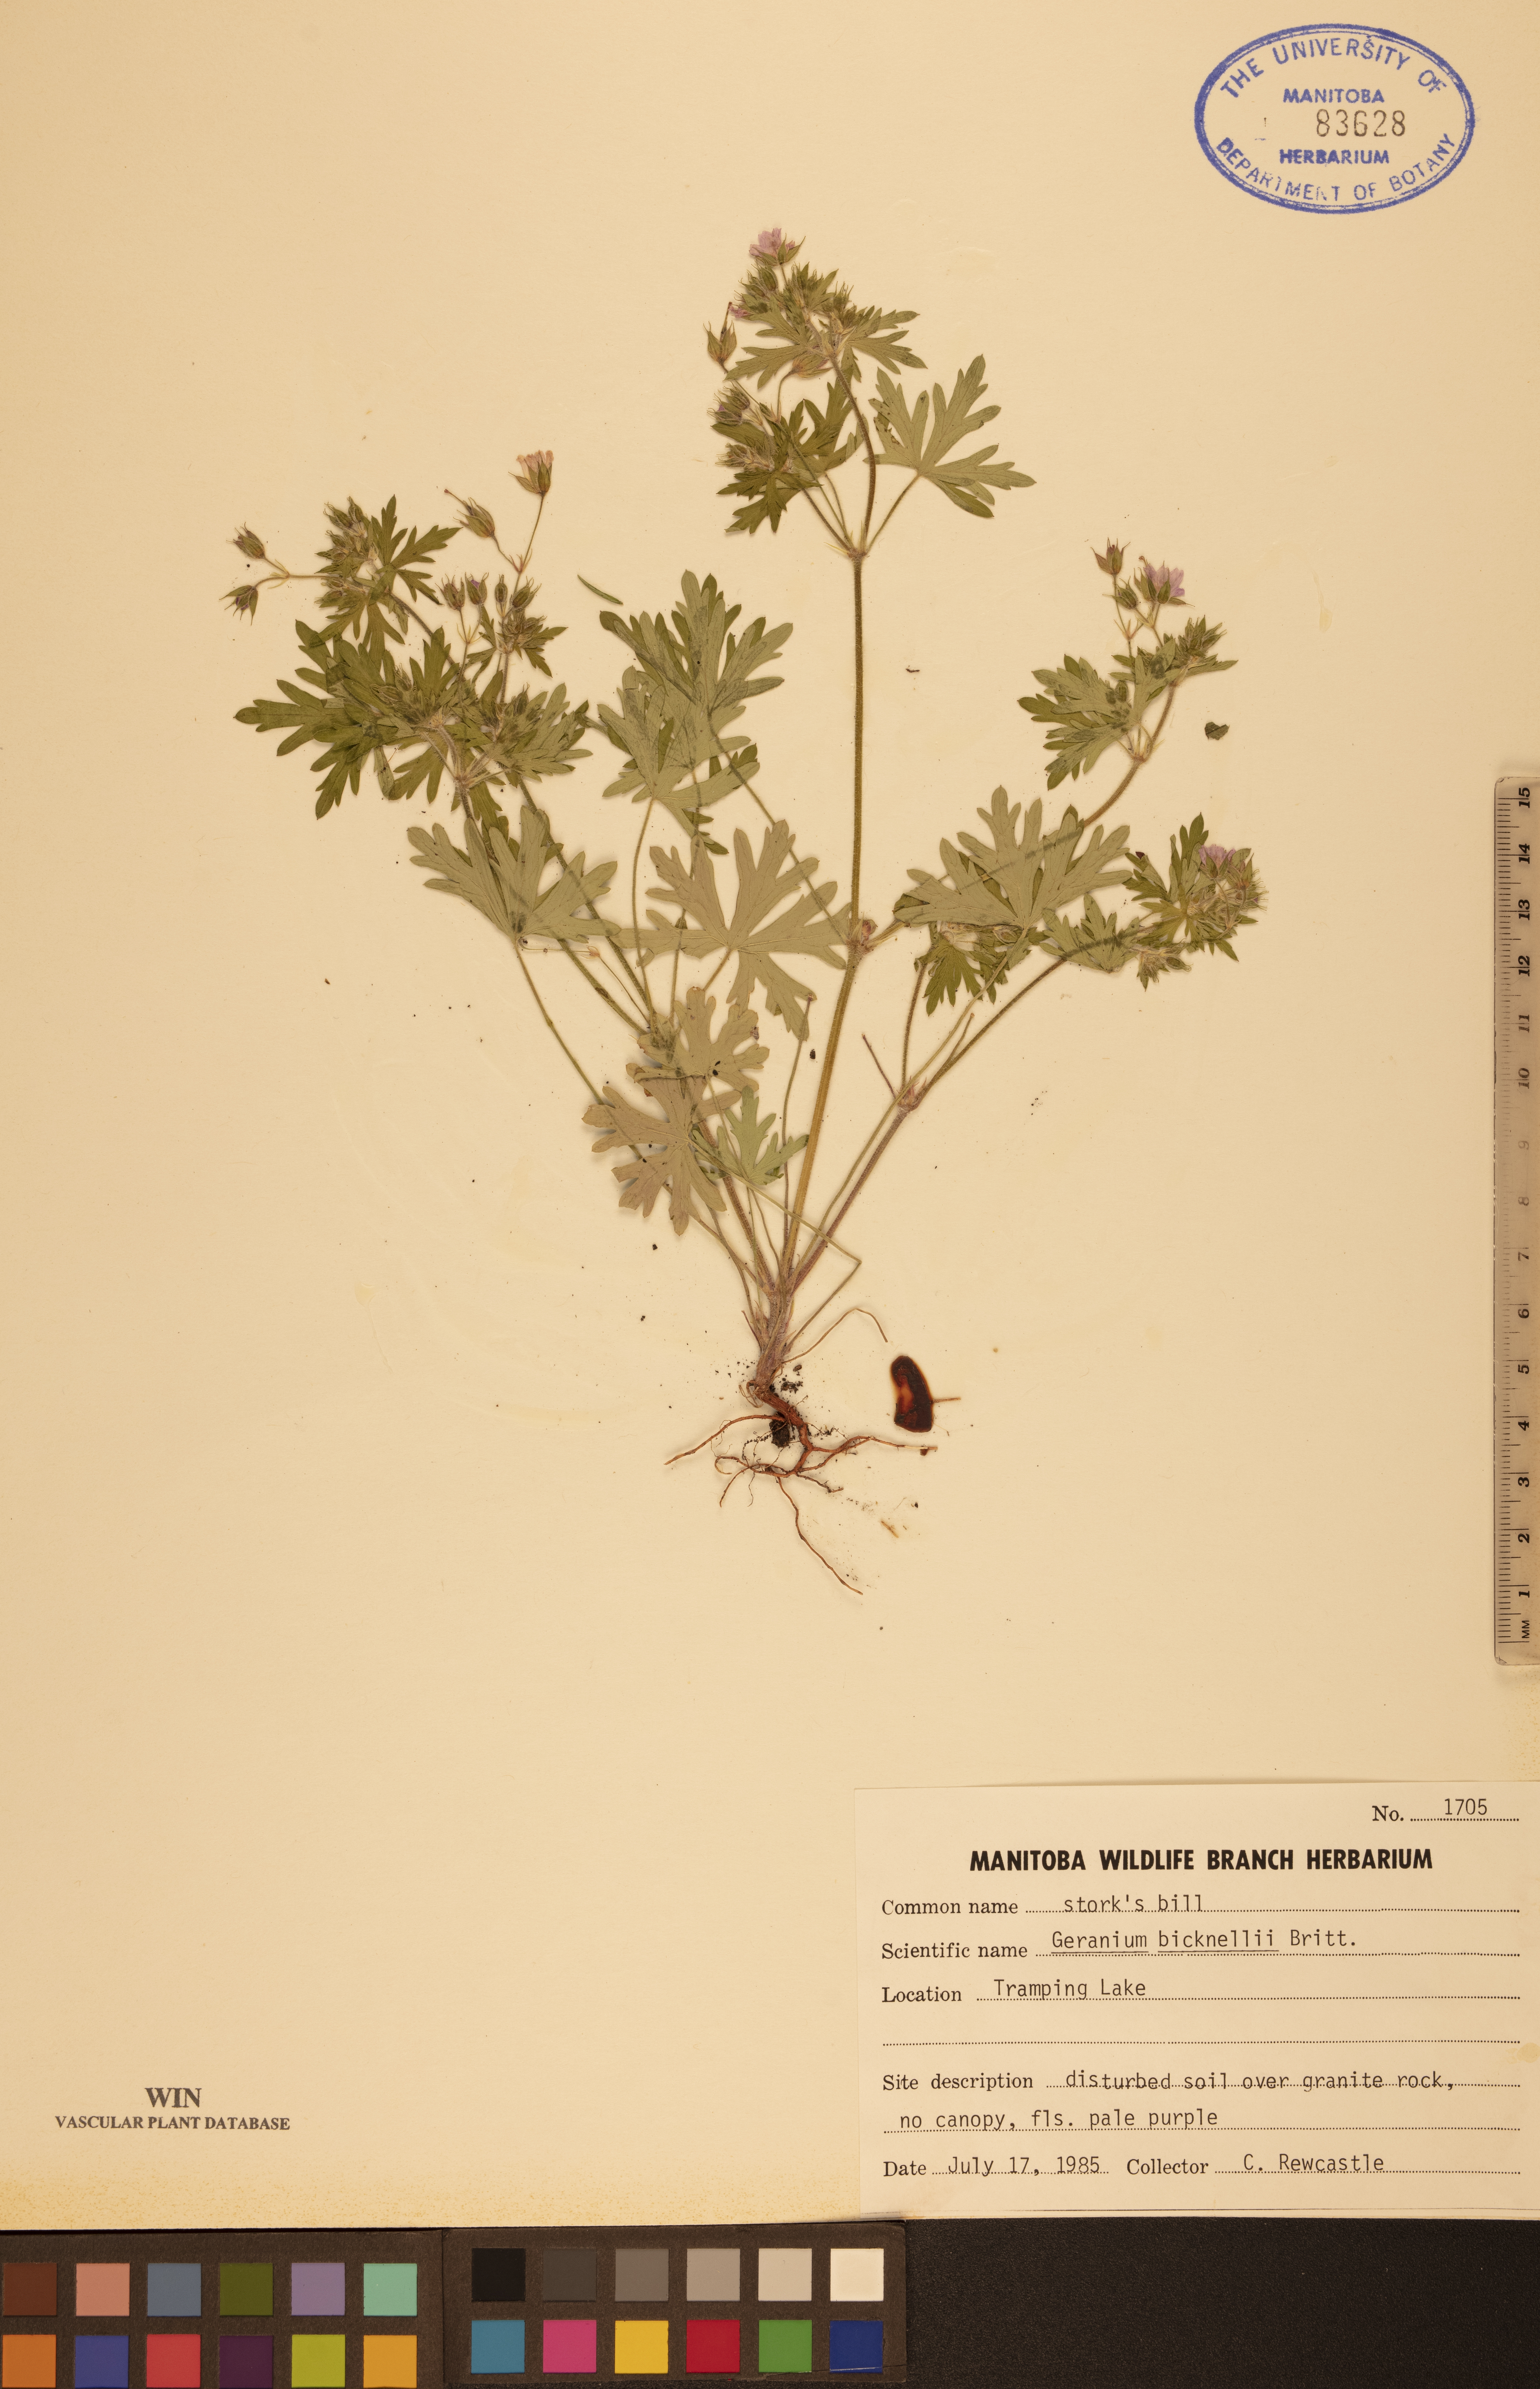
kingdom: Plantae
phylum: Tracheophyta
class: Magnoliopsida
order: Geraniales
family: Geraniaceae
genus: Geranium
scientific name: Geranium bicknellii
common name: Bicknell's cranesbill
